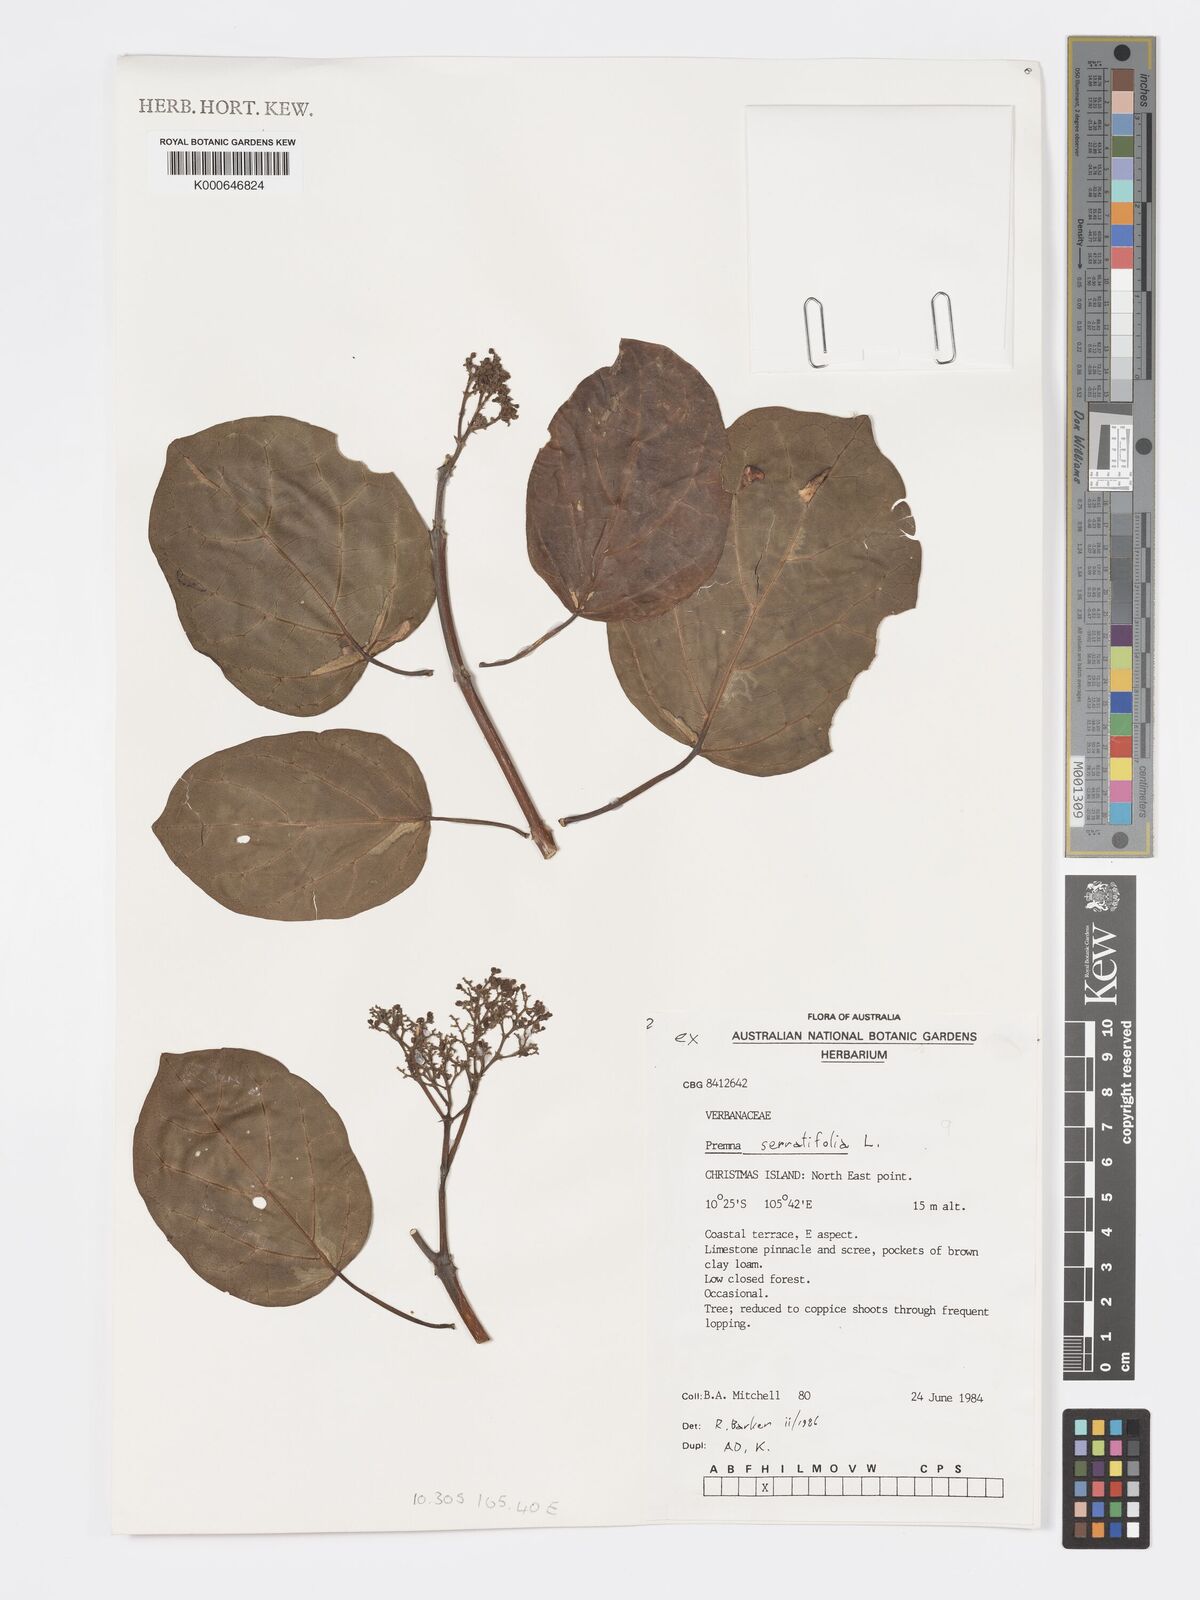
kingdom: Plantae
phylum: Tracheophyta
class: Magnoliopsida
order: Lamiales
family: Lamiaceae
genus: Premna
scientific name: Premna serratifolia
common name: Bastard guelder
